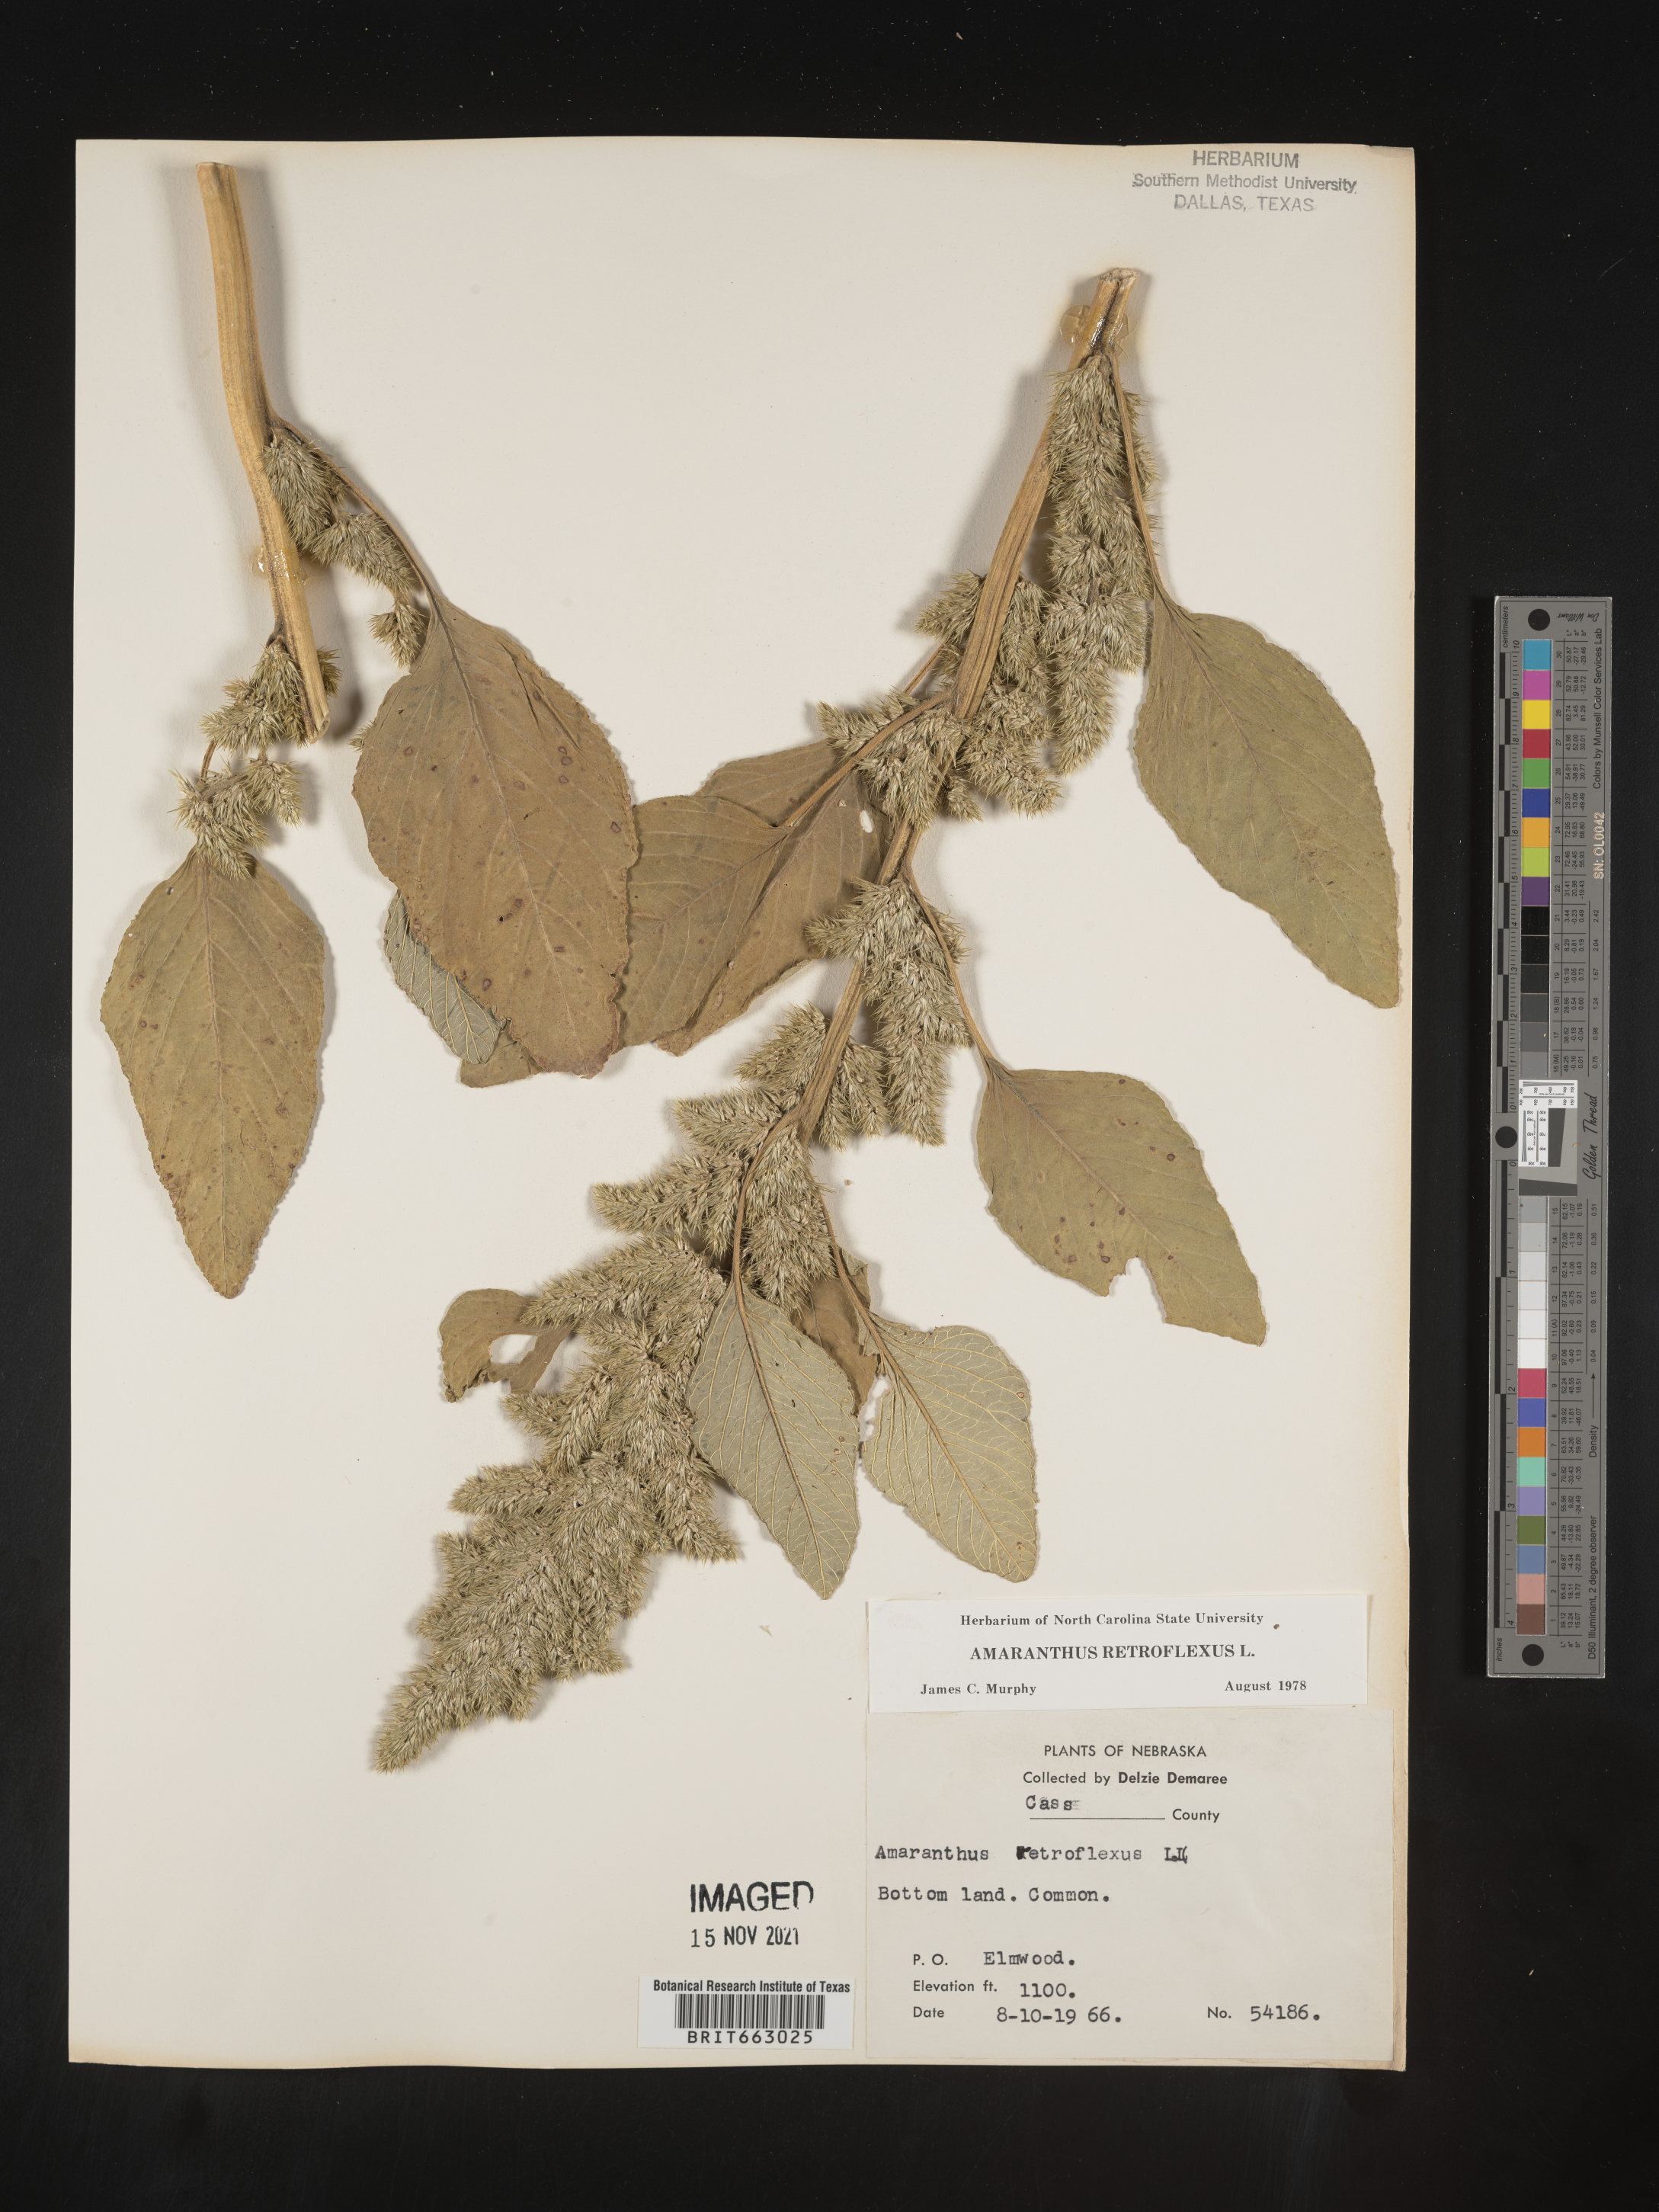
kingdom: Plantae
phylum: Tracheophyta
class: Magnoliopsida
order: Caryophyllales
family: Amaranthaceae
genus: Amaranthus
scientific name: Amaranthus retroflexus
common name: Redroot amaranth
